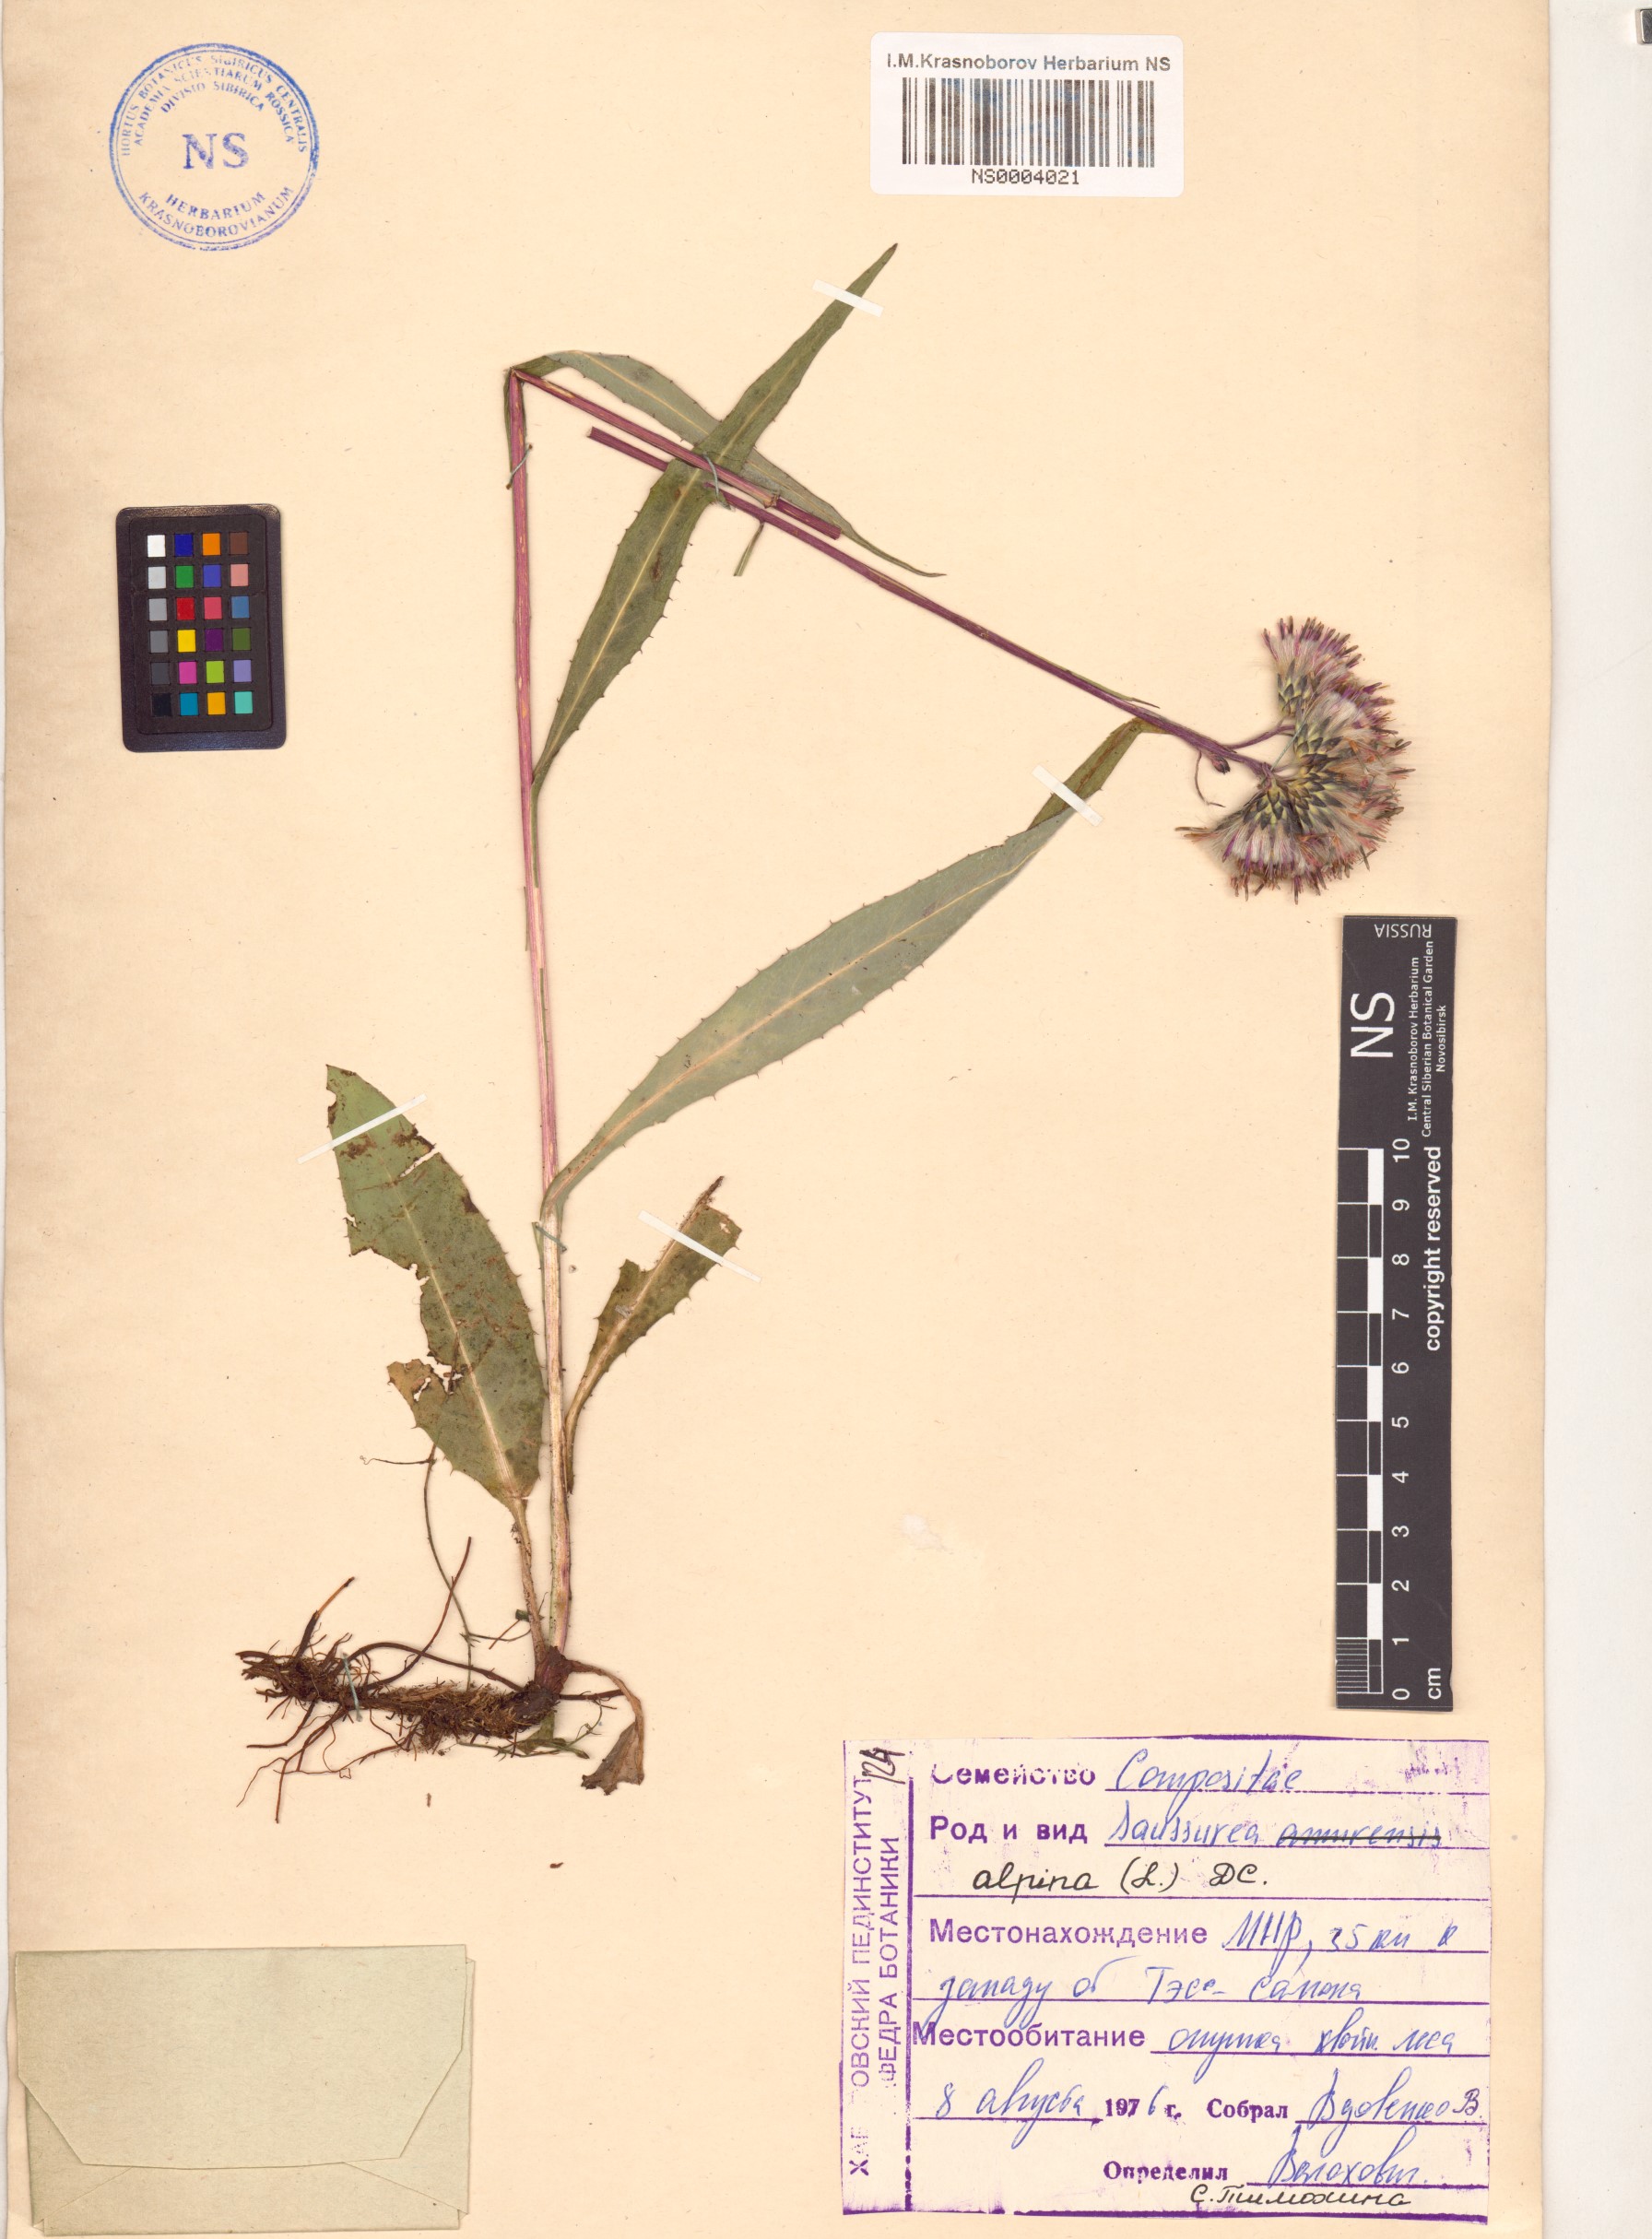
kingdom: Plantae
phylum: Tracheophyta
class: Magnoliopsida
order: Asterales
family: Asteraceae
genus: Saussurea
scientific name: Saussurea alpina
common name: Alpine saw-wort
